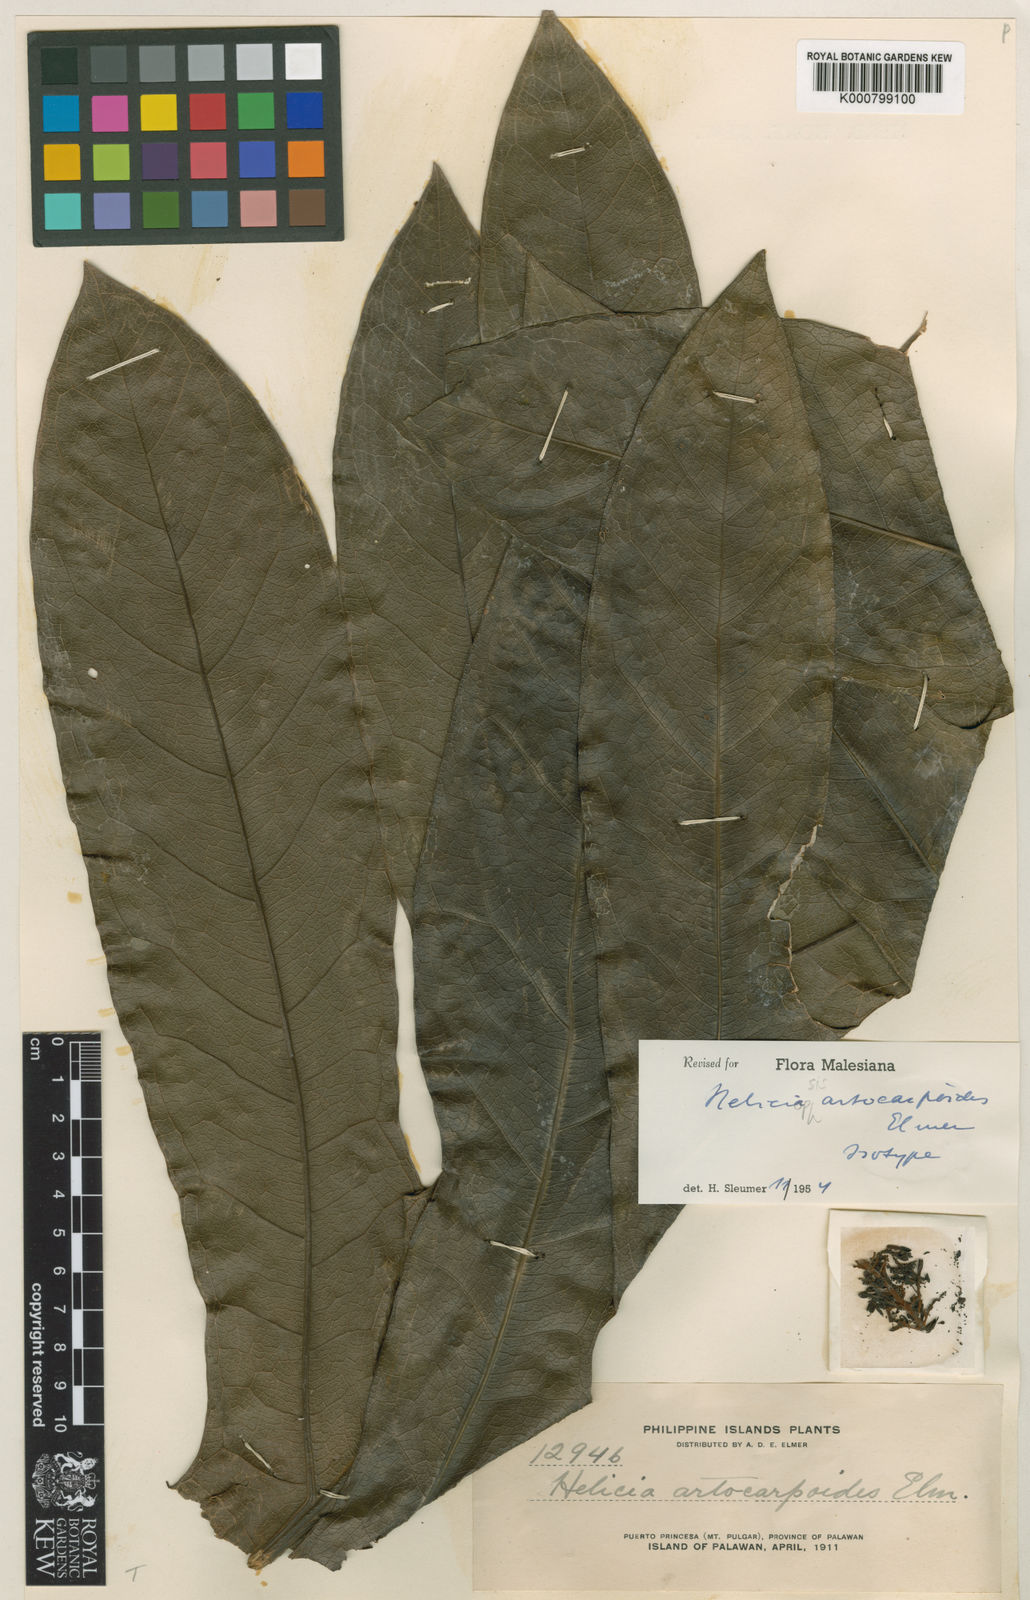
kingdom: Plantae
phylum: Tracheophyta
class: Magnoliopsida
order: Proteales
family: Proteaceae
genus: Heliciopsis
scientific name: Heliciopsis artocarpoides
